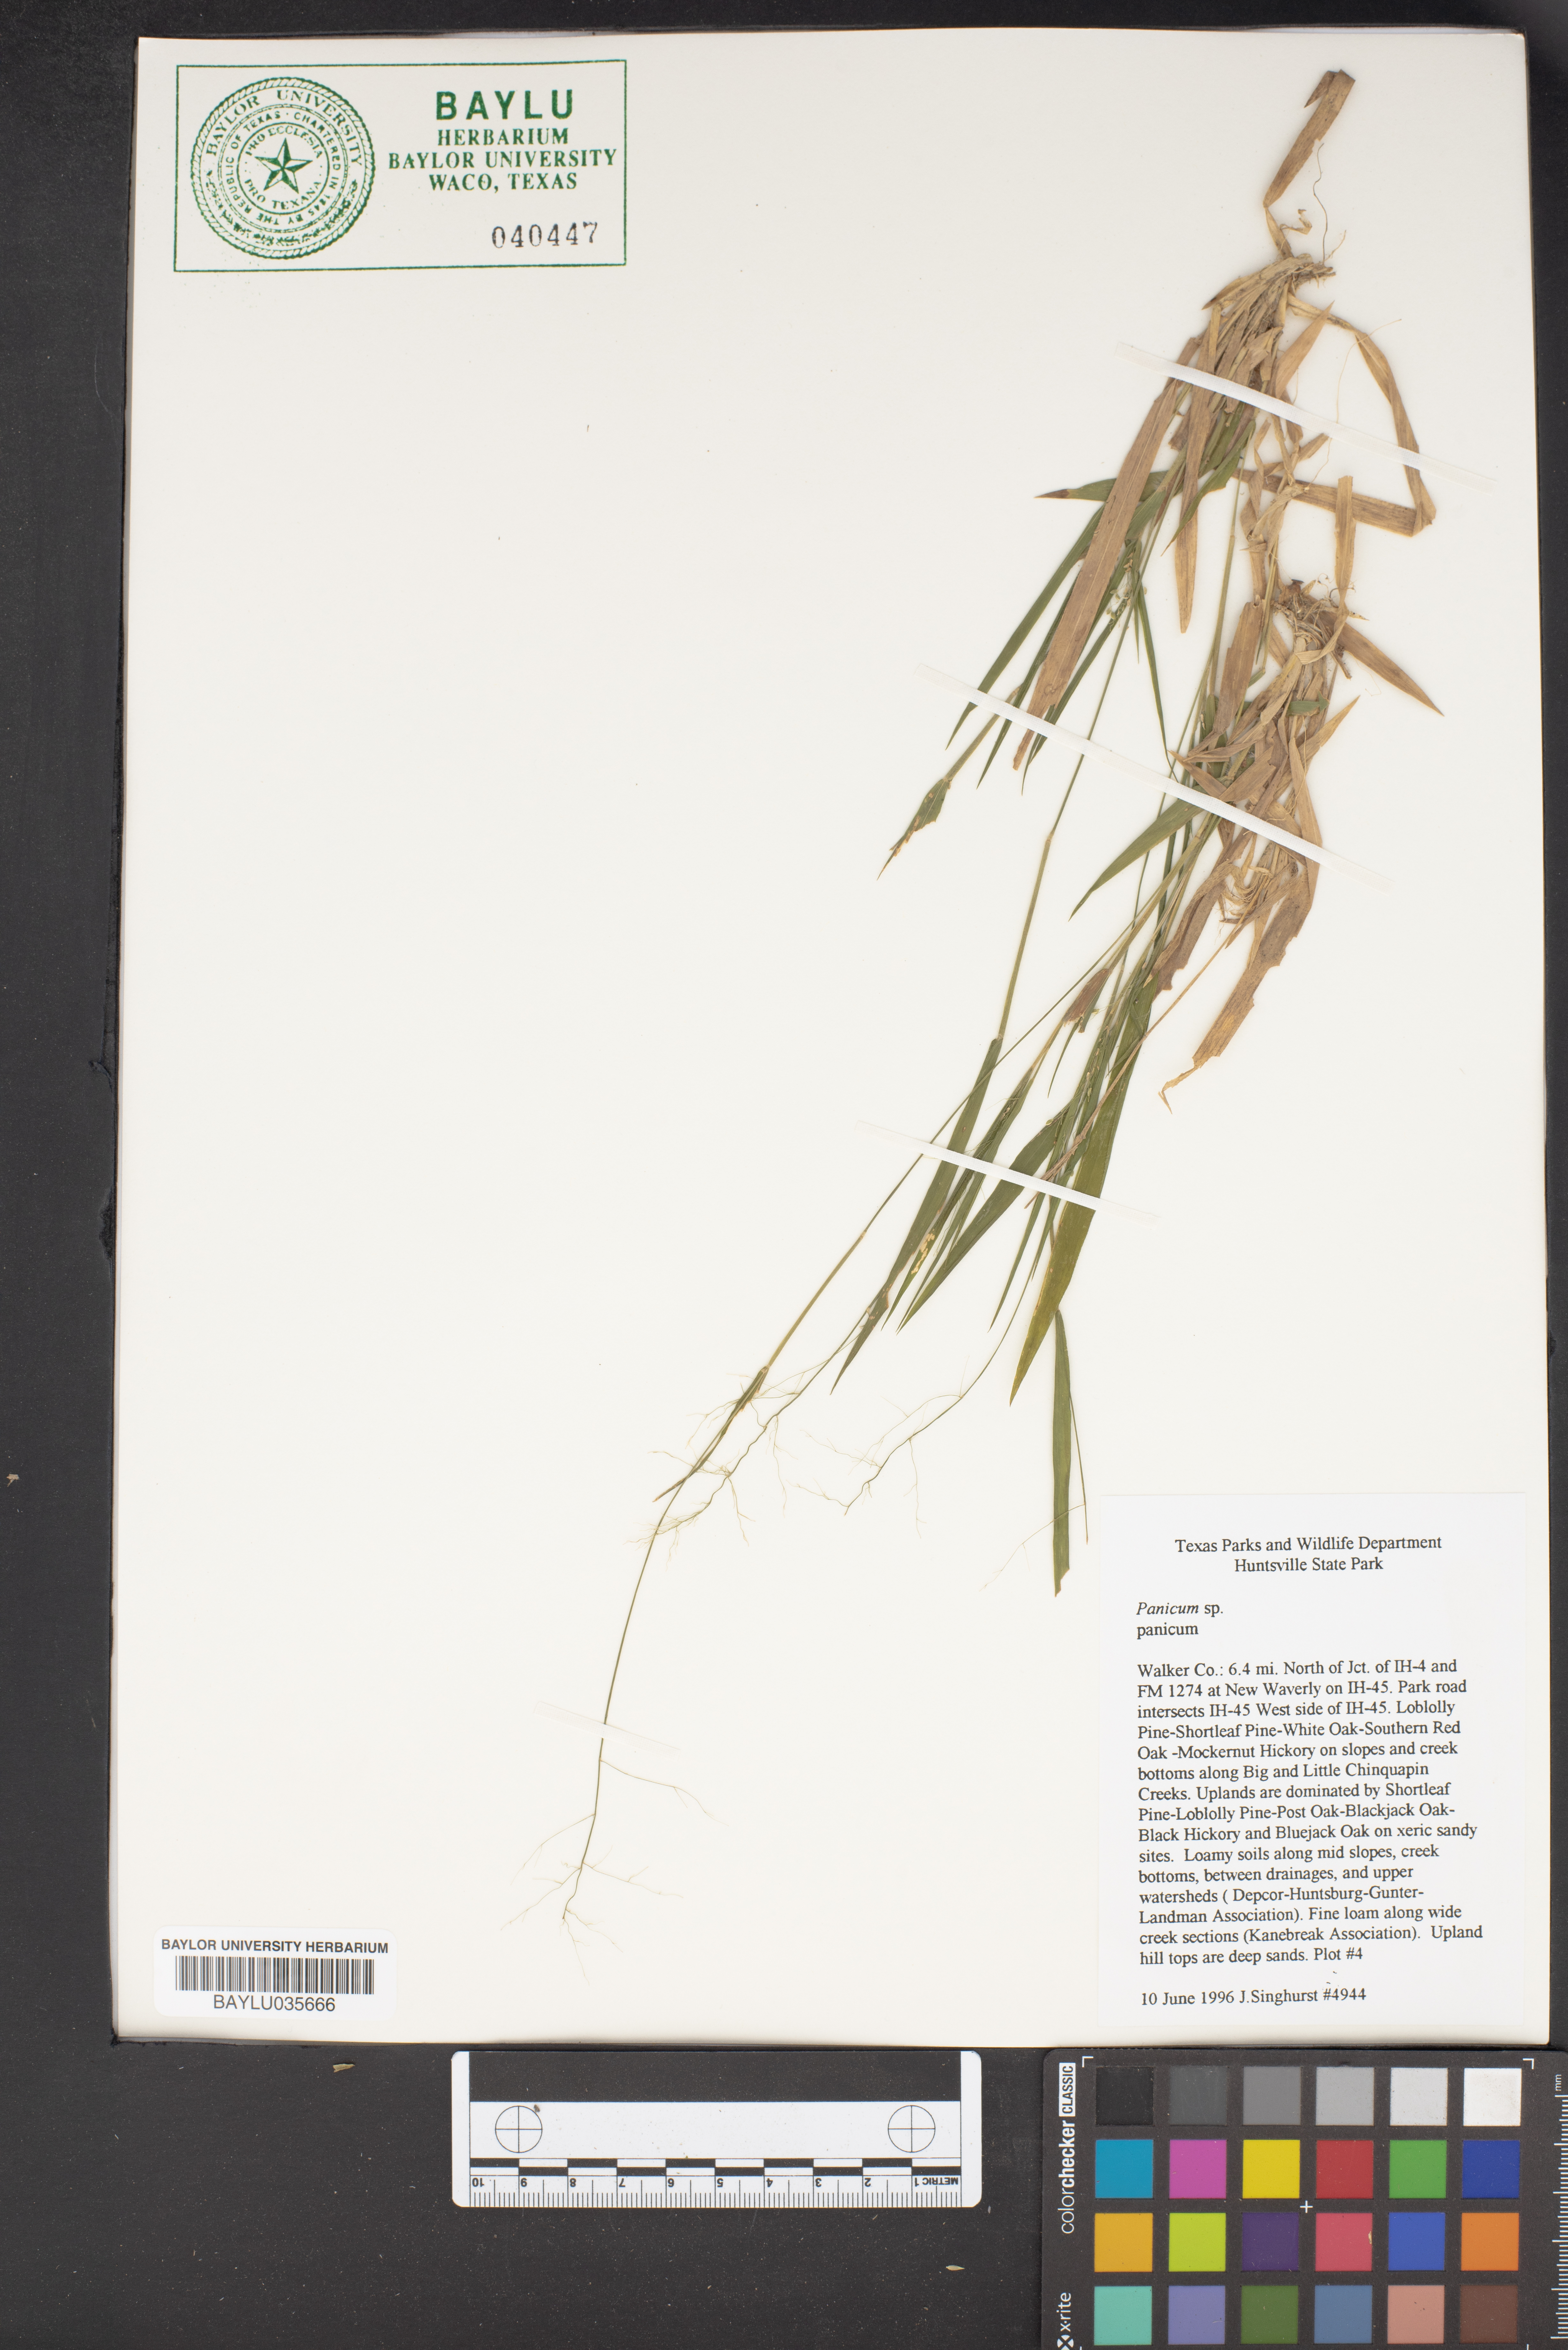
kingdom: Plantae
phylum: Tracheophyta
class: Liliopsida
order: Poales
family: Poaceae
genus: Panicum
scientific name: Panicum
